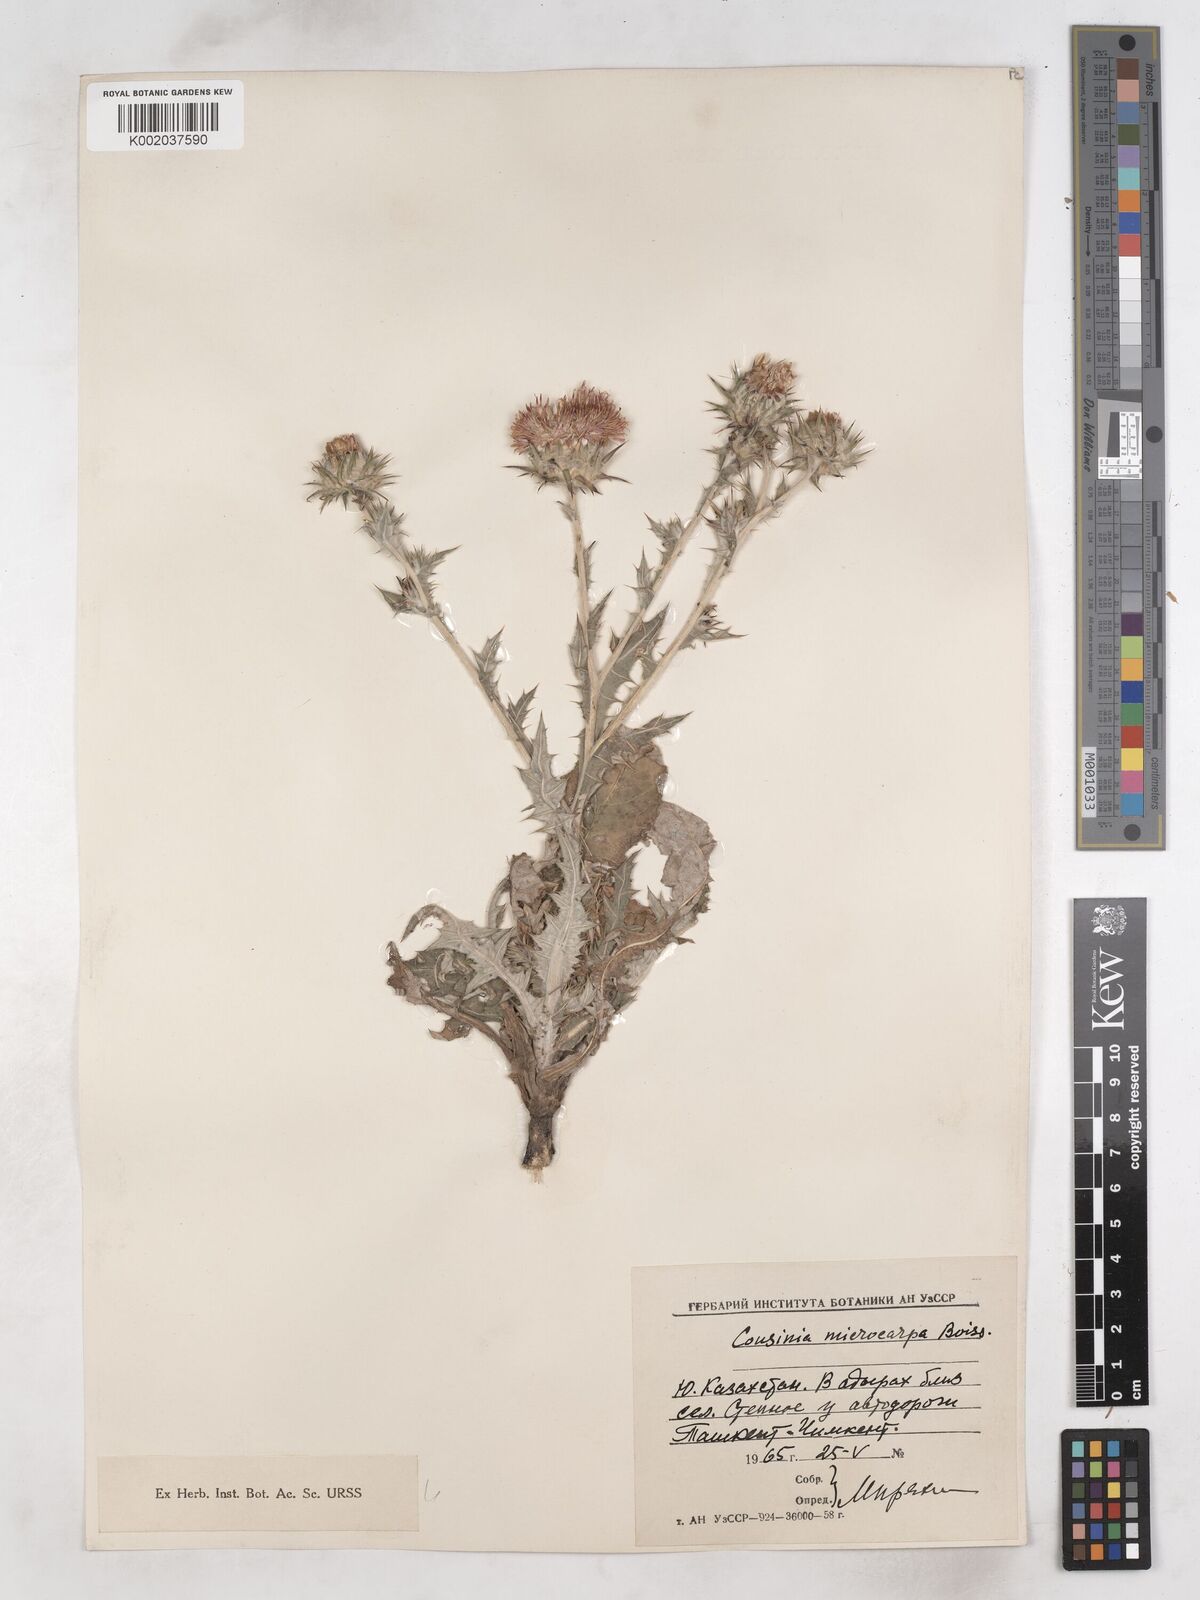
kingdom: Plantae
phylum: Tracheophyta
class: Magnoliopsida
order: Asterales
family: Asteraceae
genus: Cousinia
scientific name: Cousinia microcarpa
